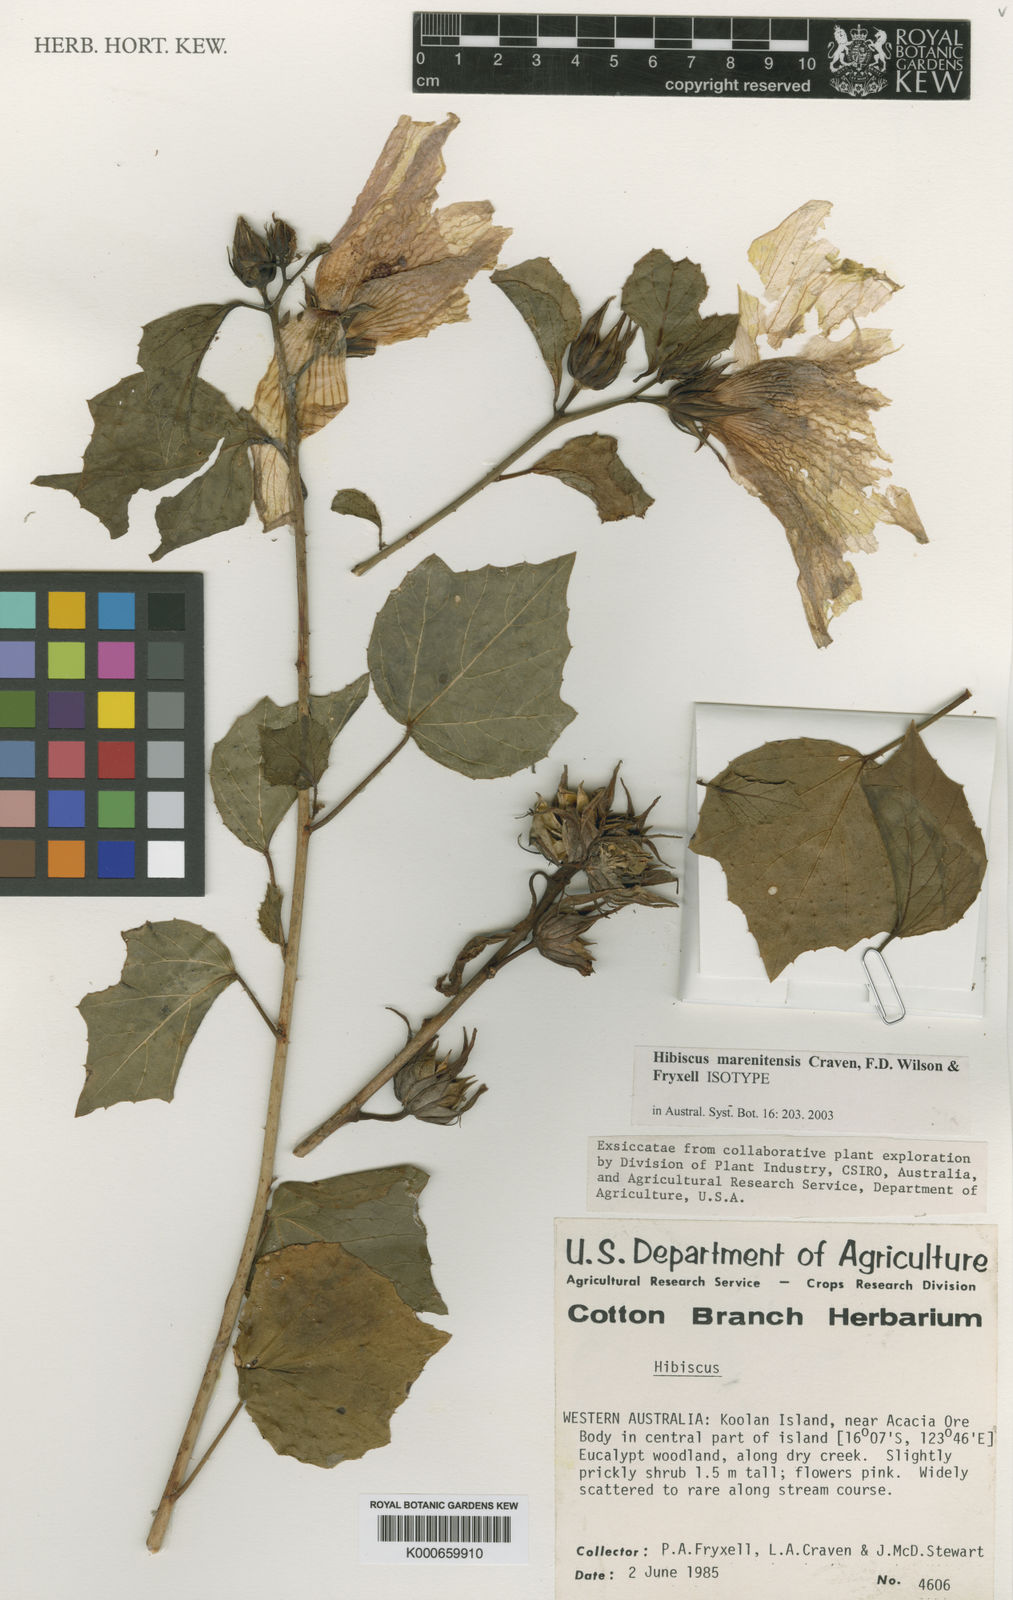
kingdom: Plantae
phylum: Tracheophyta
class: Magnoliopsida
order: Malvales
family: Malvaceae
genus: Hibiscus
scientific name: Hibiscus marenitensis
